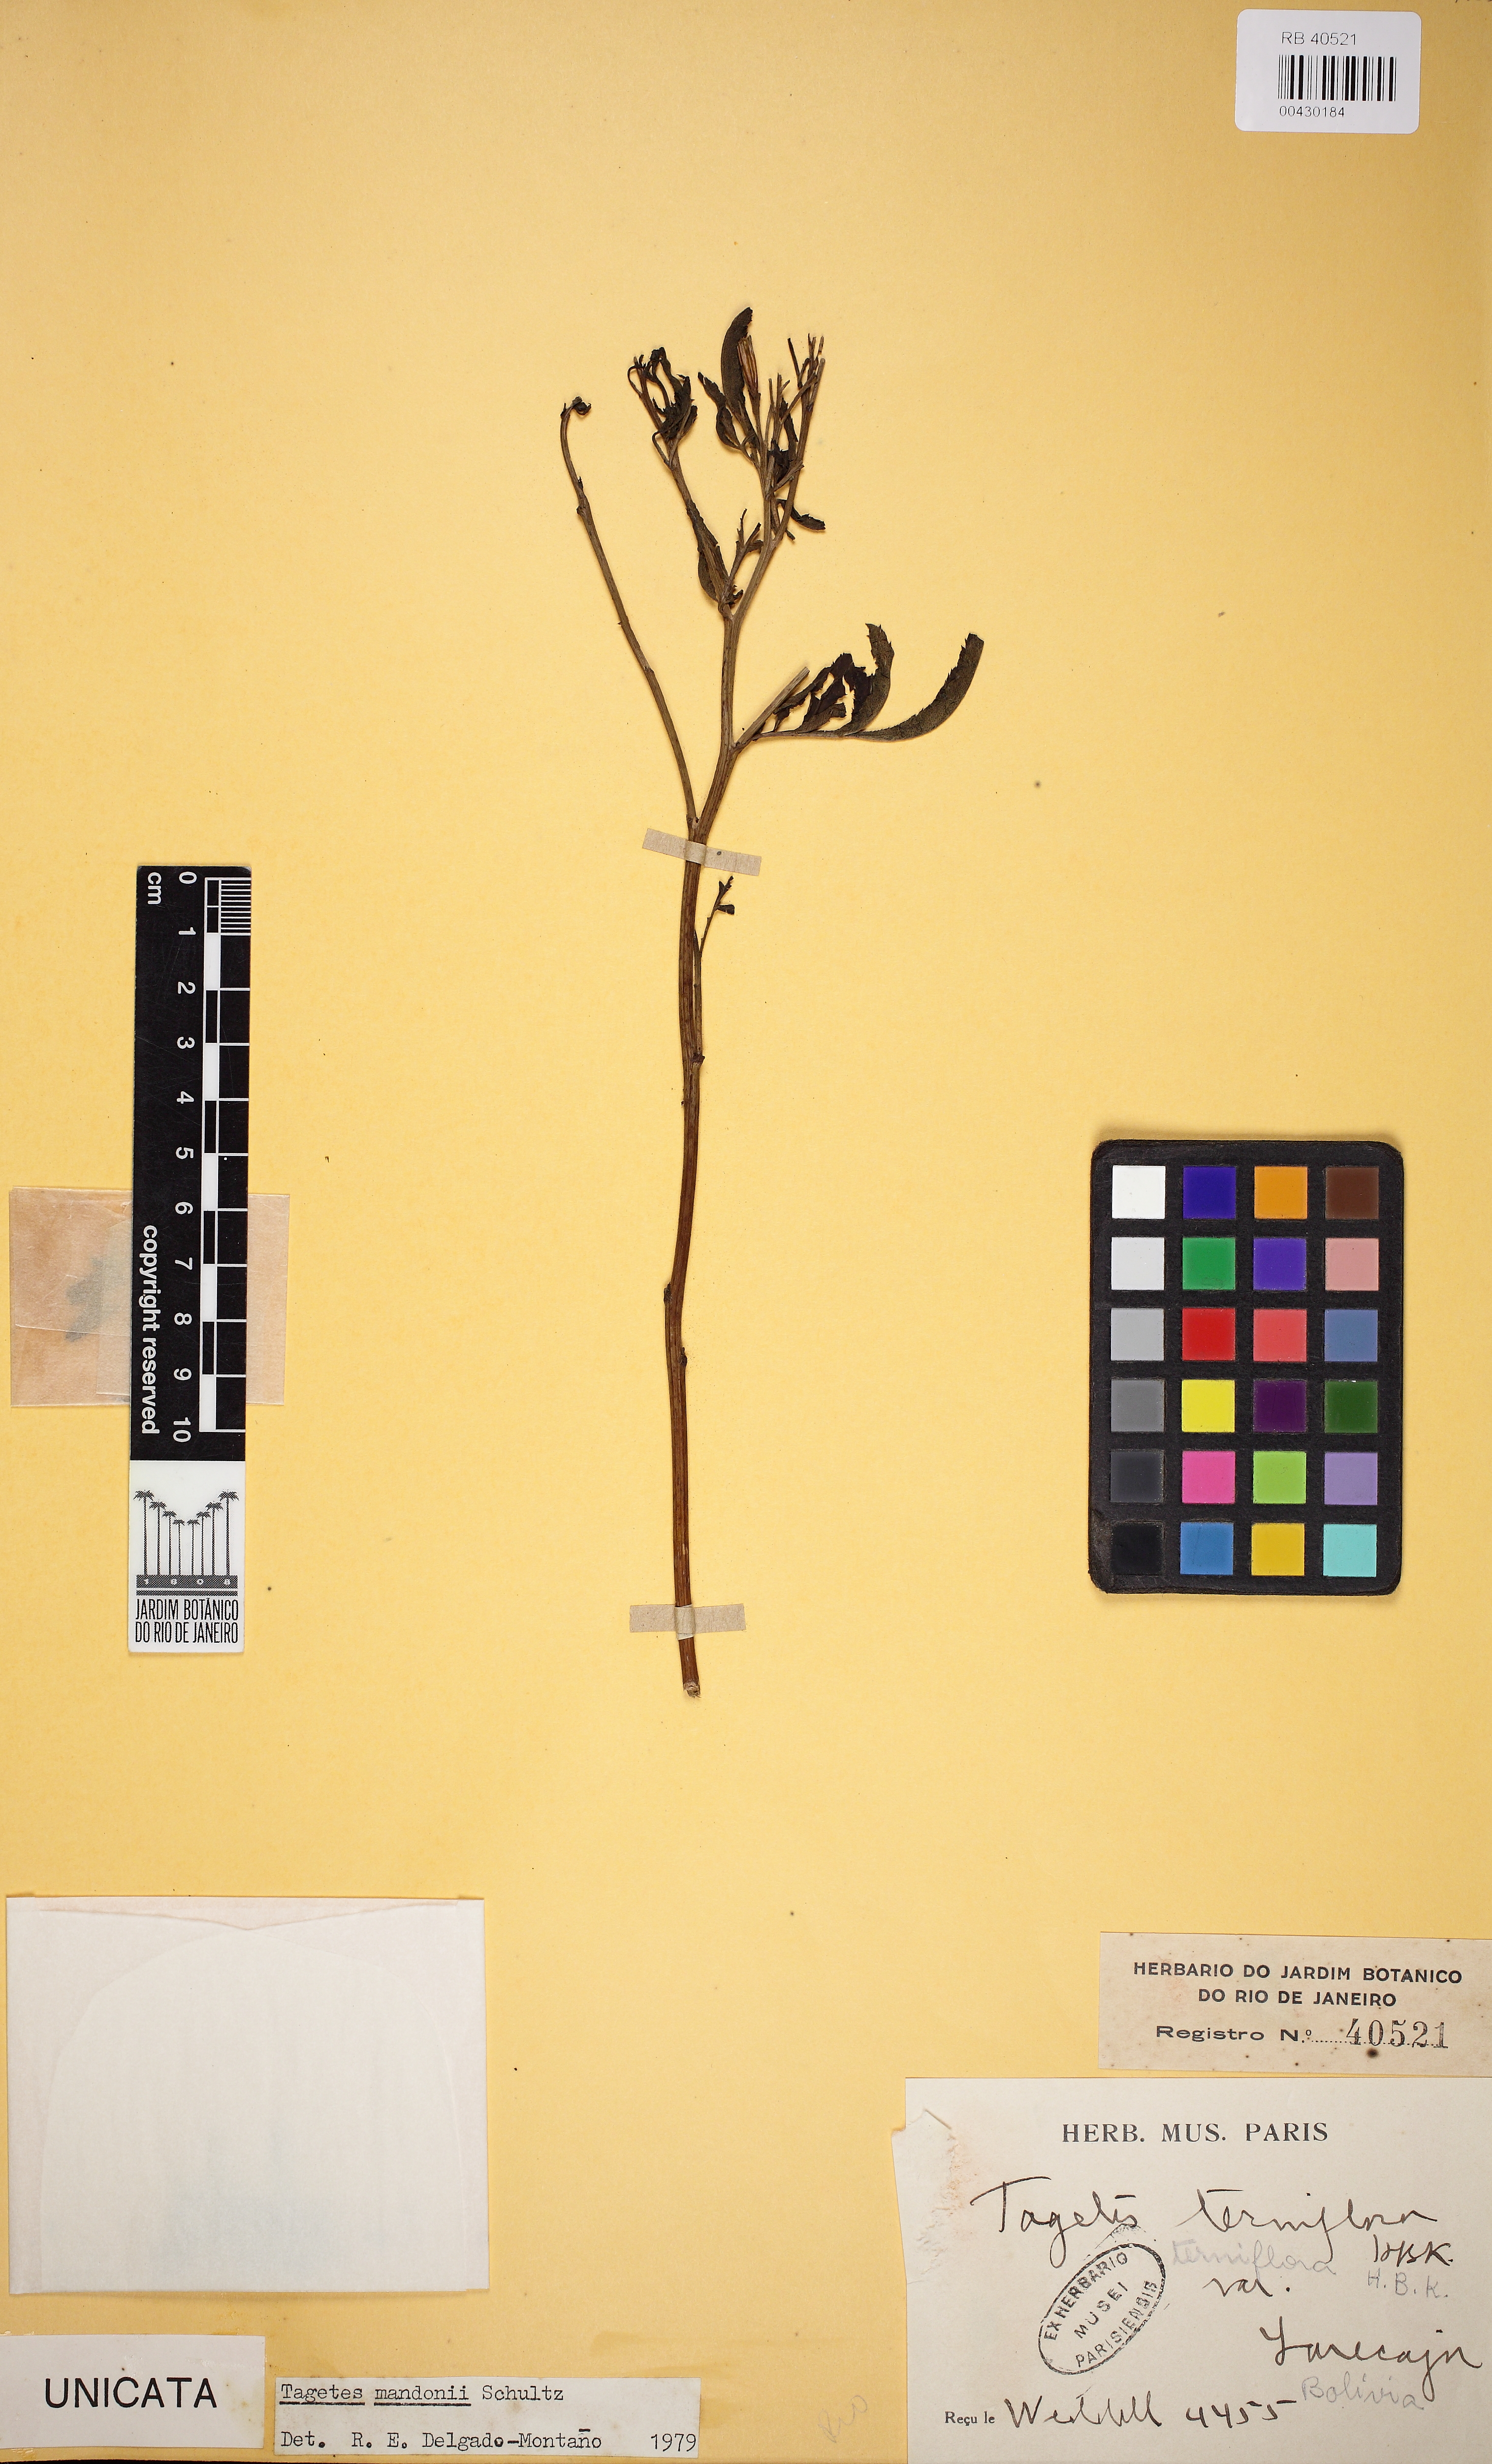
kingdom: Plantae
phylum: Tracheophyta
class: Magnoliopsida
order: Asterales
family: Asteraceae
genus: Tagetes
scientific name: Tagetes mandonii
